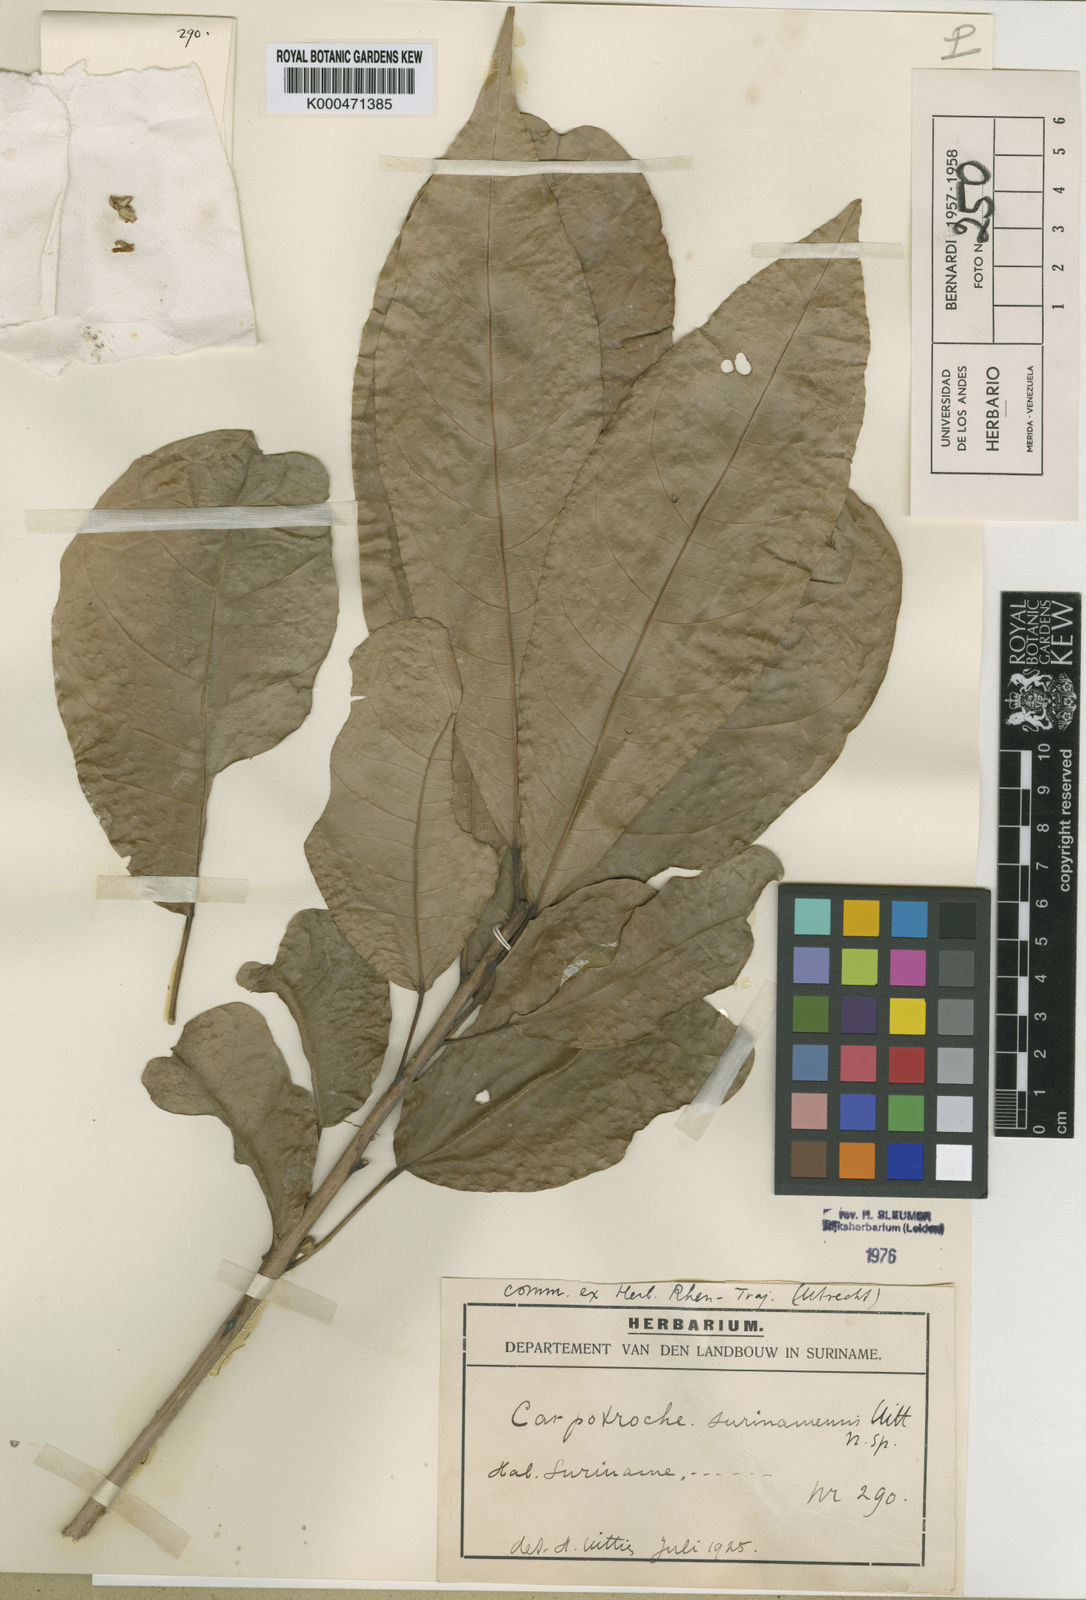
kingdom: Plantae
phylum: Tracheophyta
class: Magnoliopsida
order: Malpighiales
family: Achariaceae
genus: Carpotroche
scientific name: Carpotroche surinamensis
